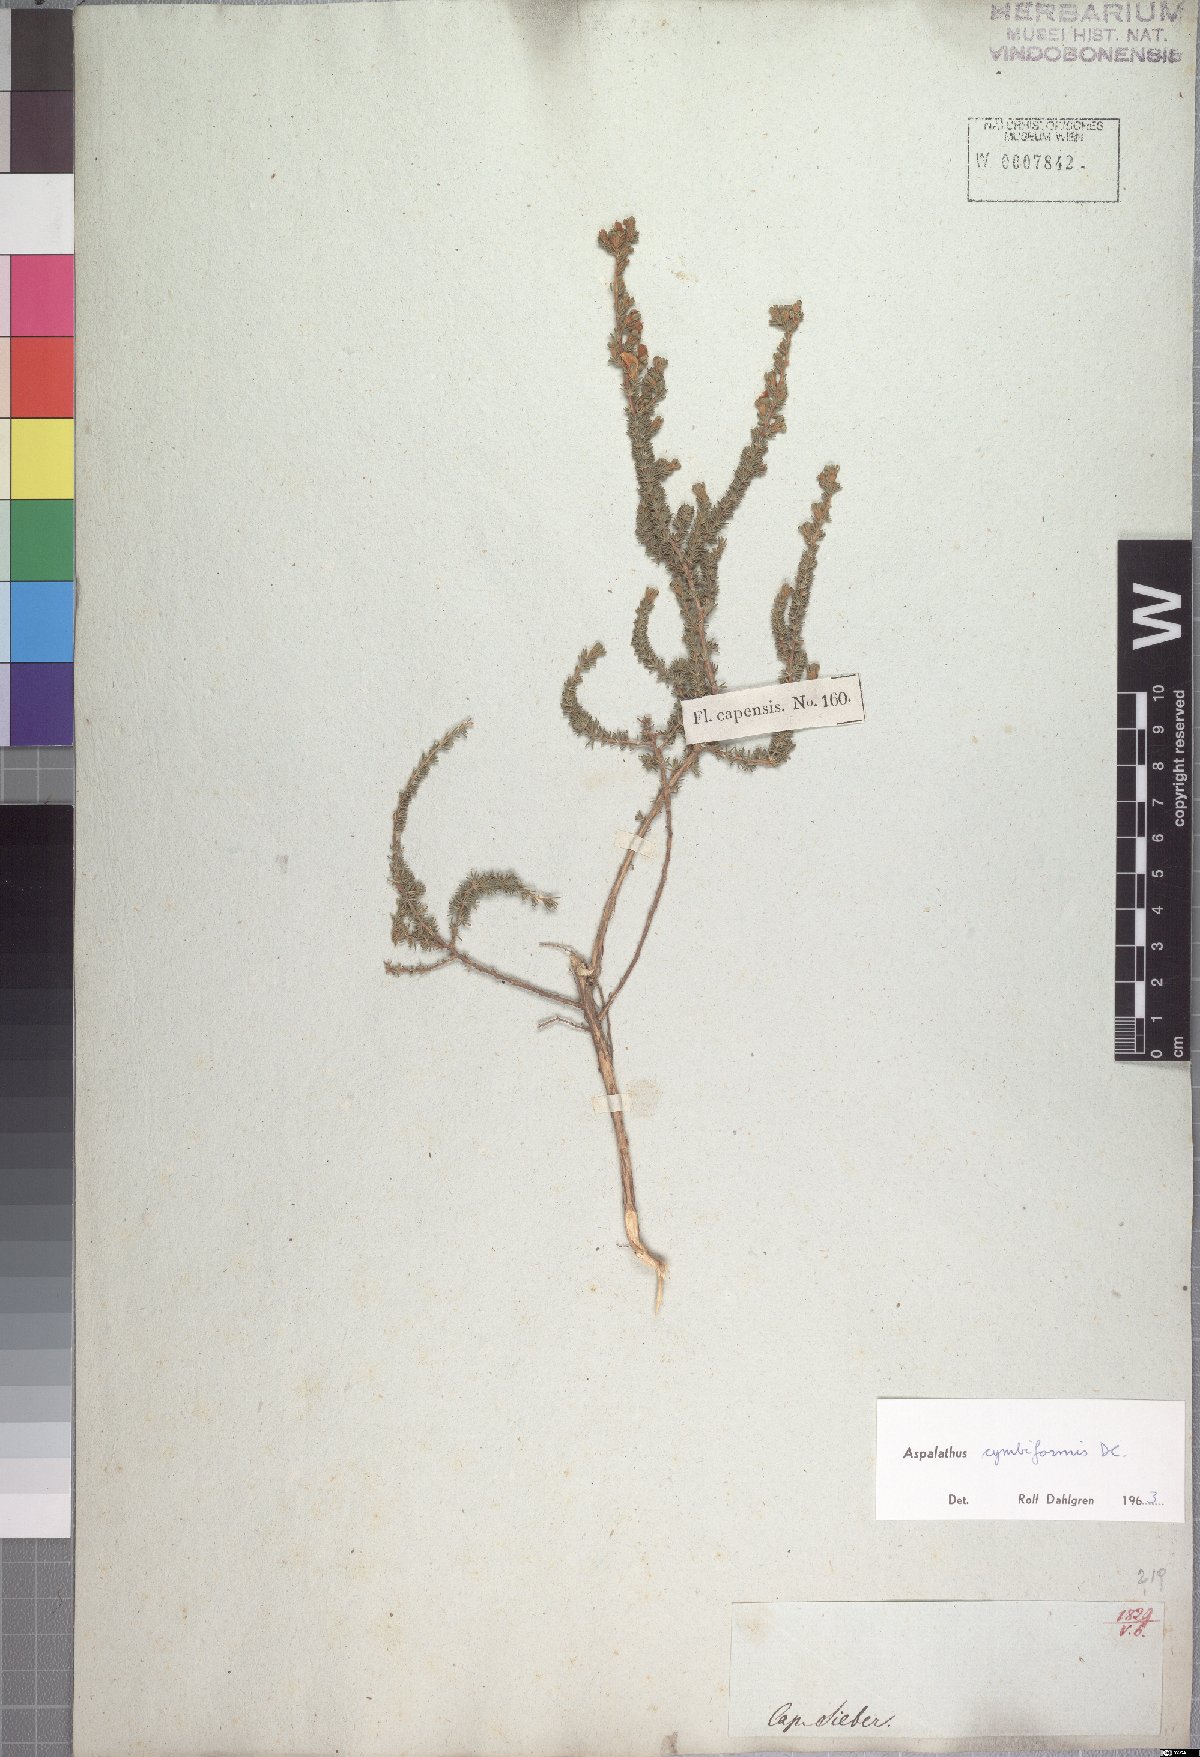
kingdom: Plantae
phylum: Tracheophyta
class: Magnoliopsida
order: Fabales
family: Fabaceae
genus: Aspalathus
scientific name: Aspalathus cymbiformis
